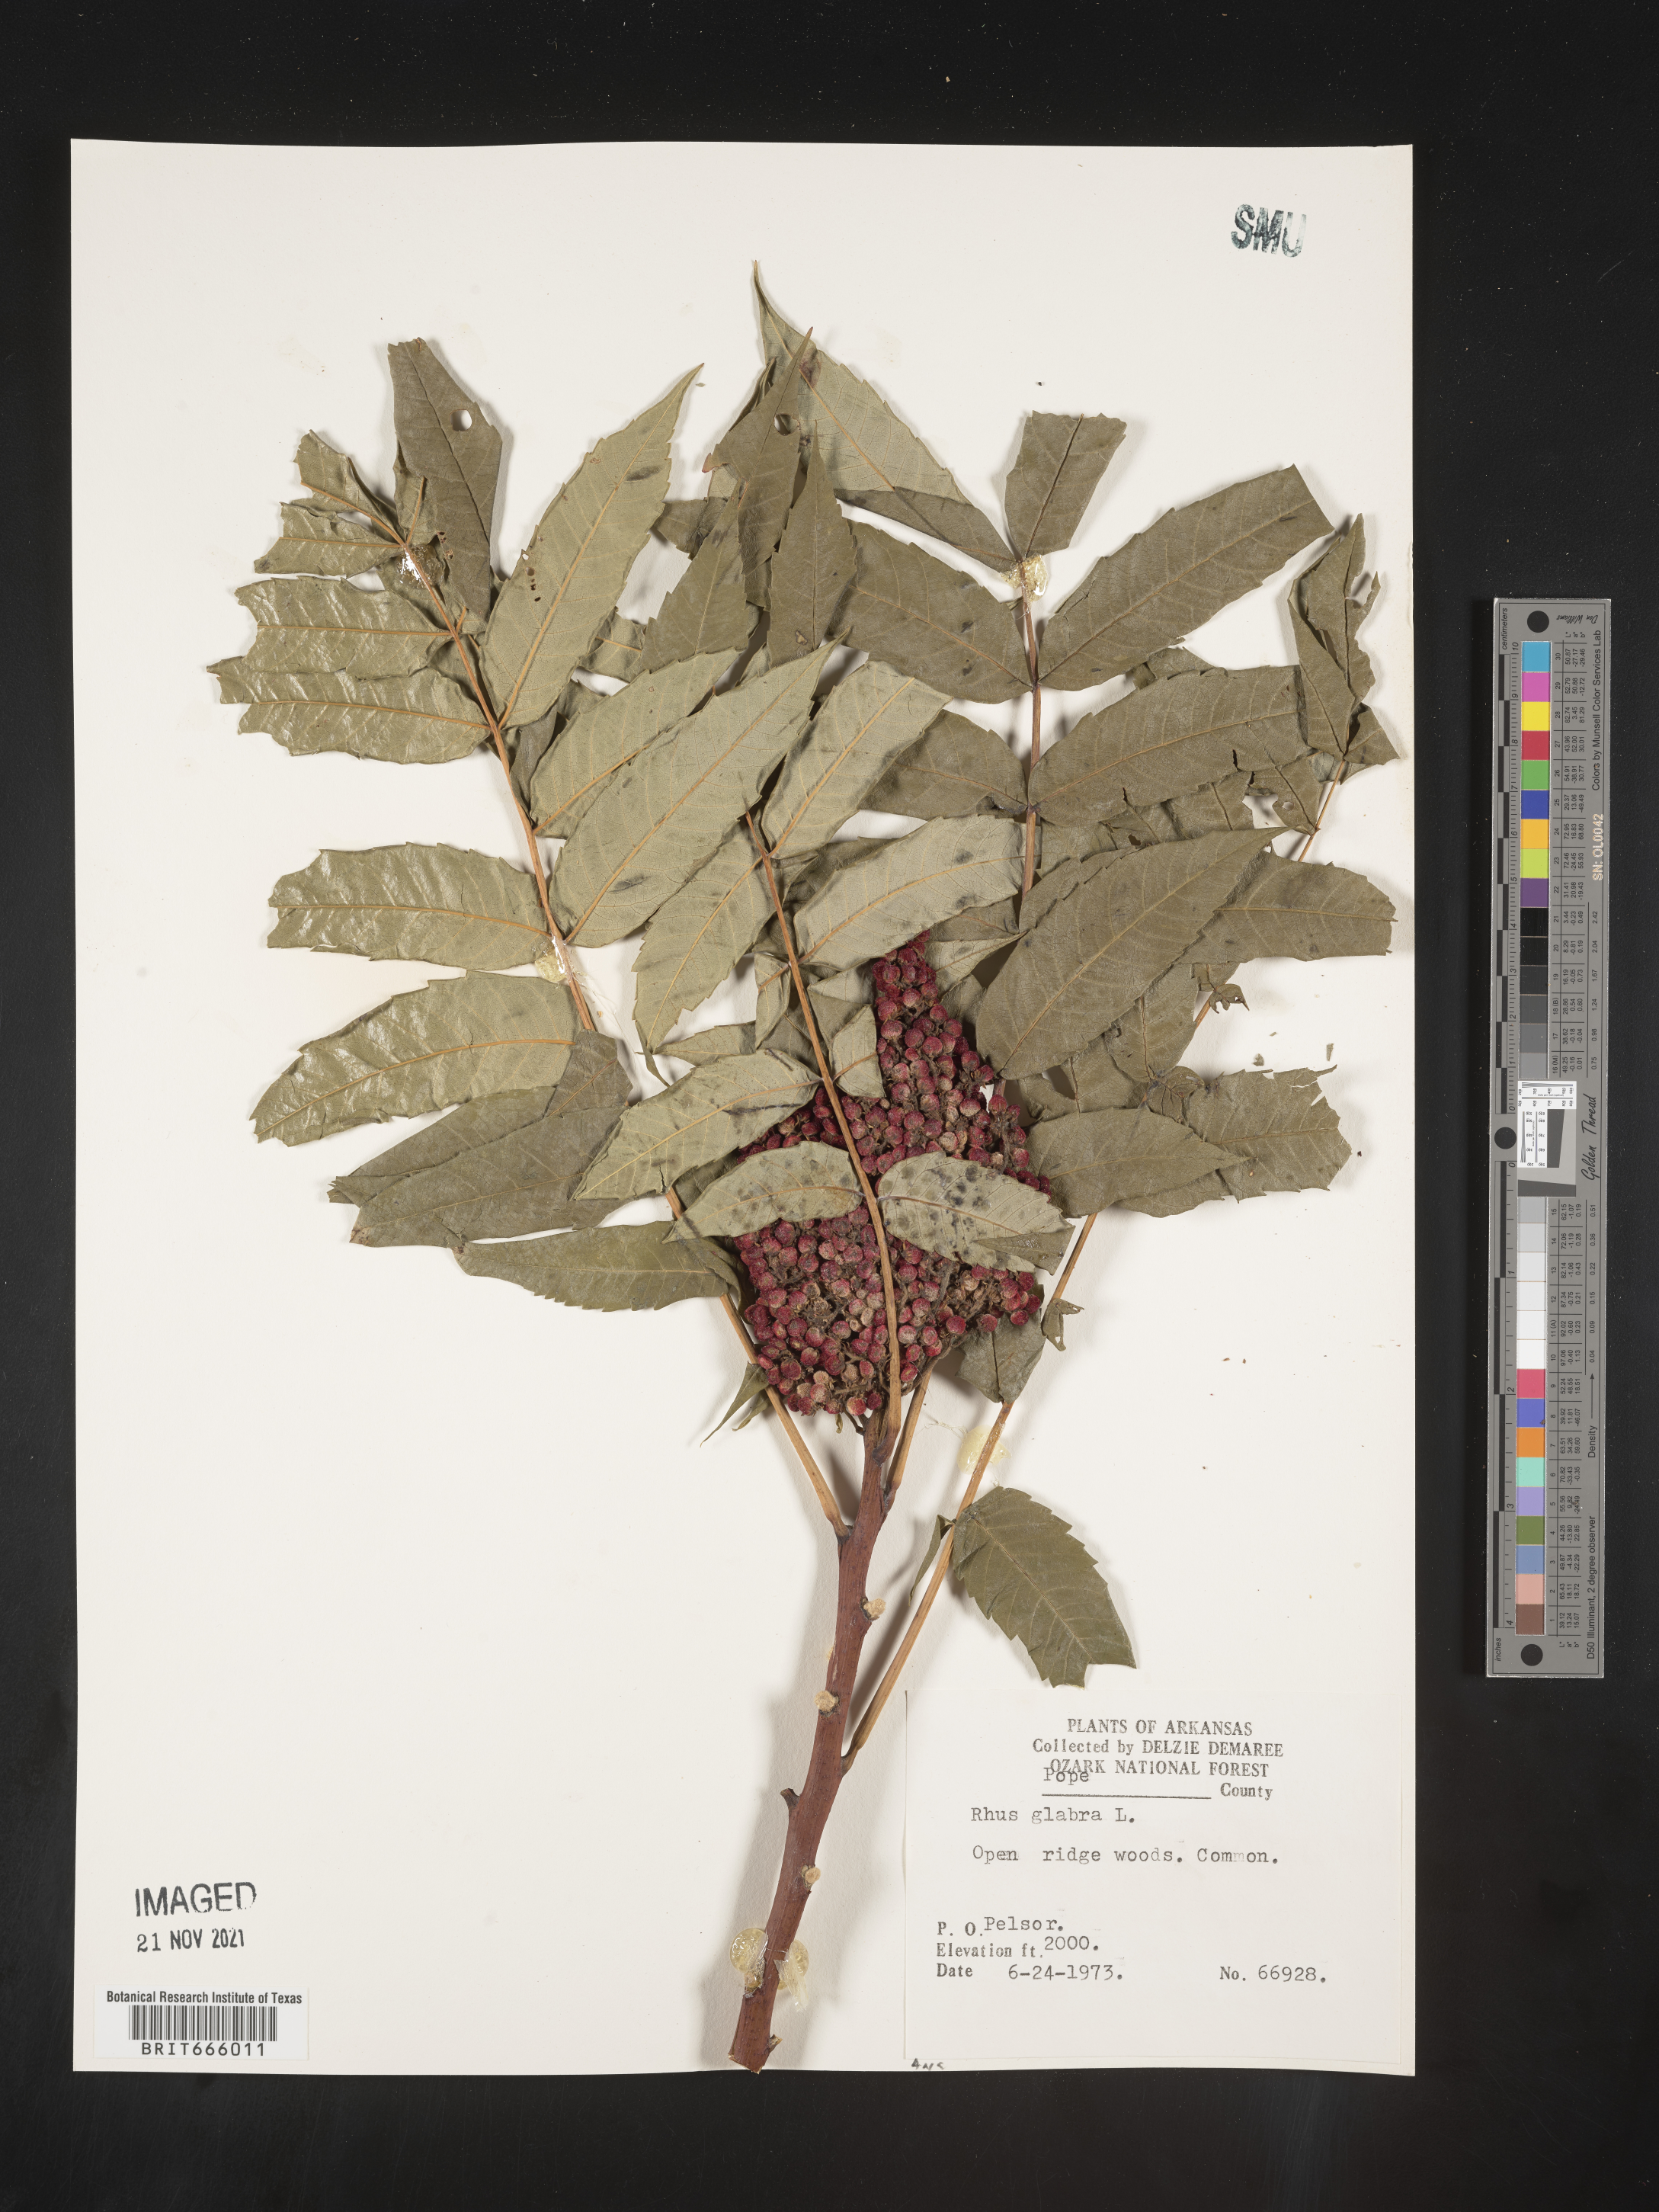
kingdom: Plantae
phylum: Tracheophyta
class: Magnoliopsida
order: Sapindales
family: Anacardiaceae
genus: Rhus
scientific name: Rhus glabra
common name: Scarlet sumac
